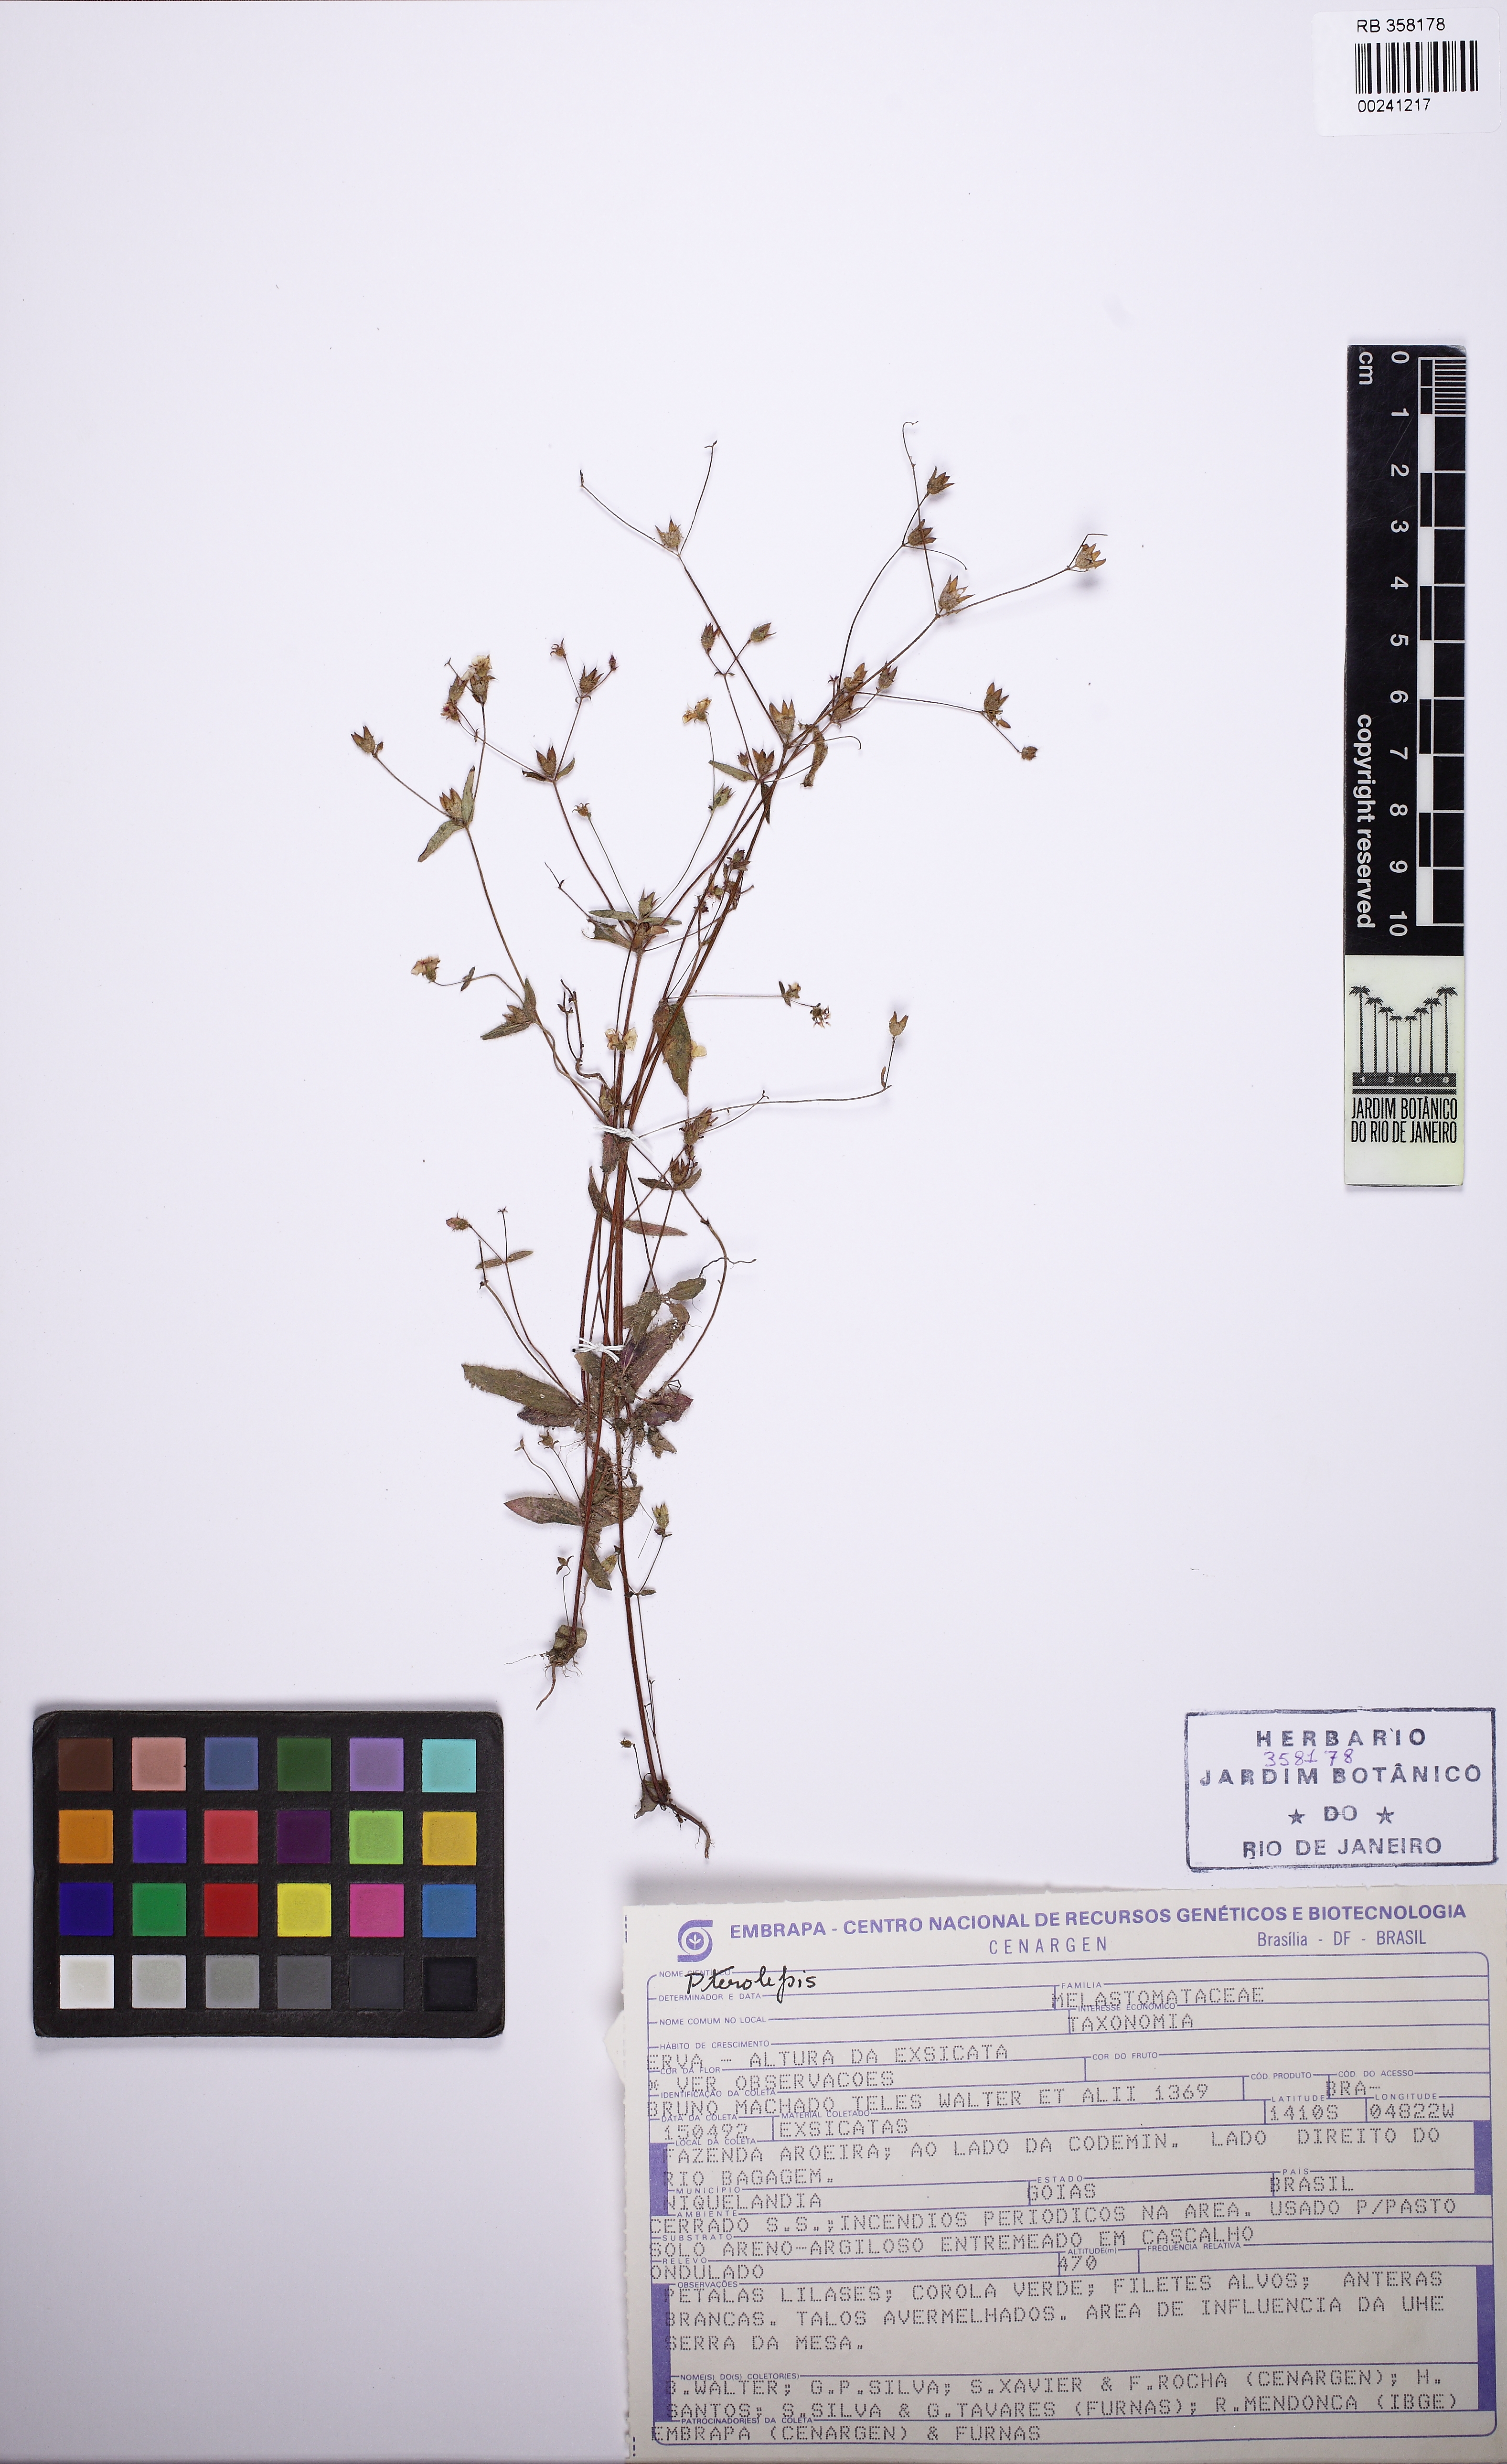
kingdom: Plantae
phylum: Tracheophyta
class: Magnoliopsida
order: Myrtales
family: Melastomataceae
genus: Pterolepis
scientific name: Pterolepis
